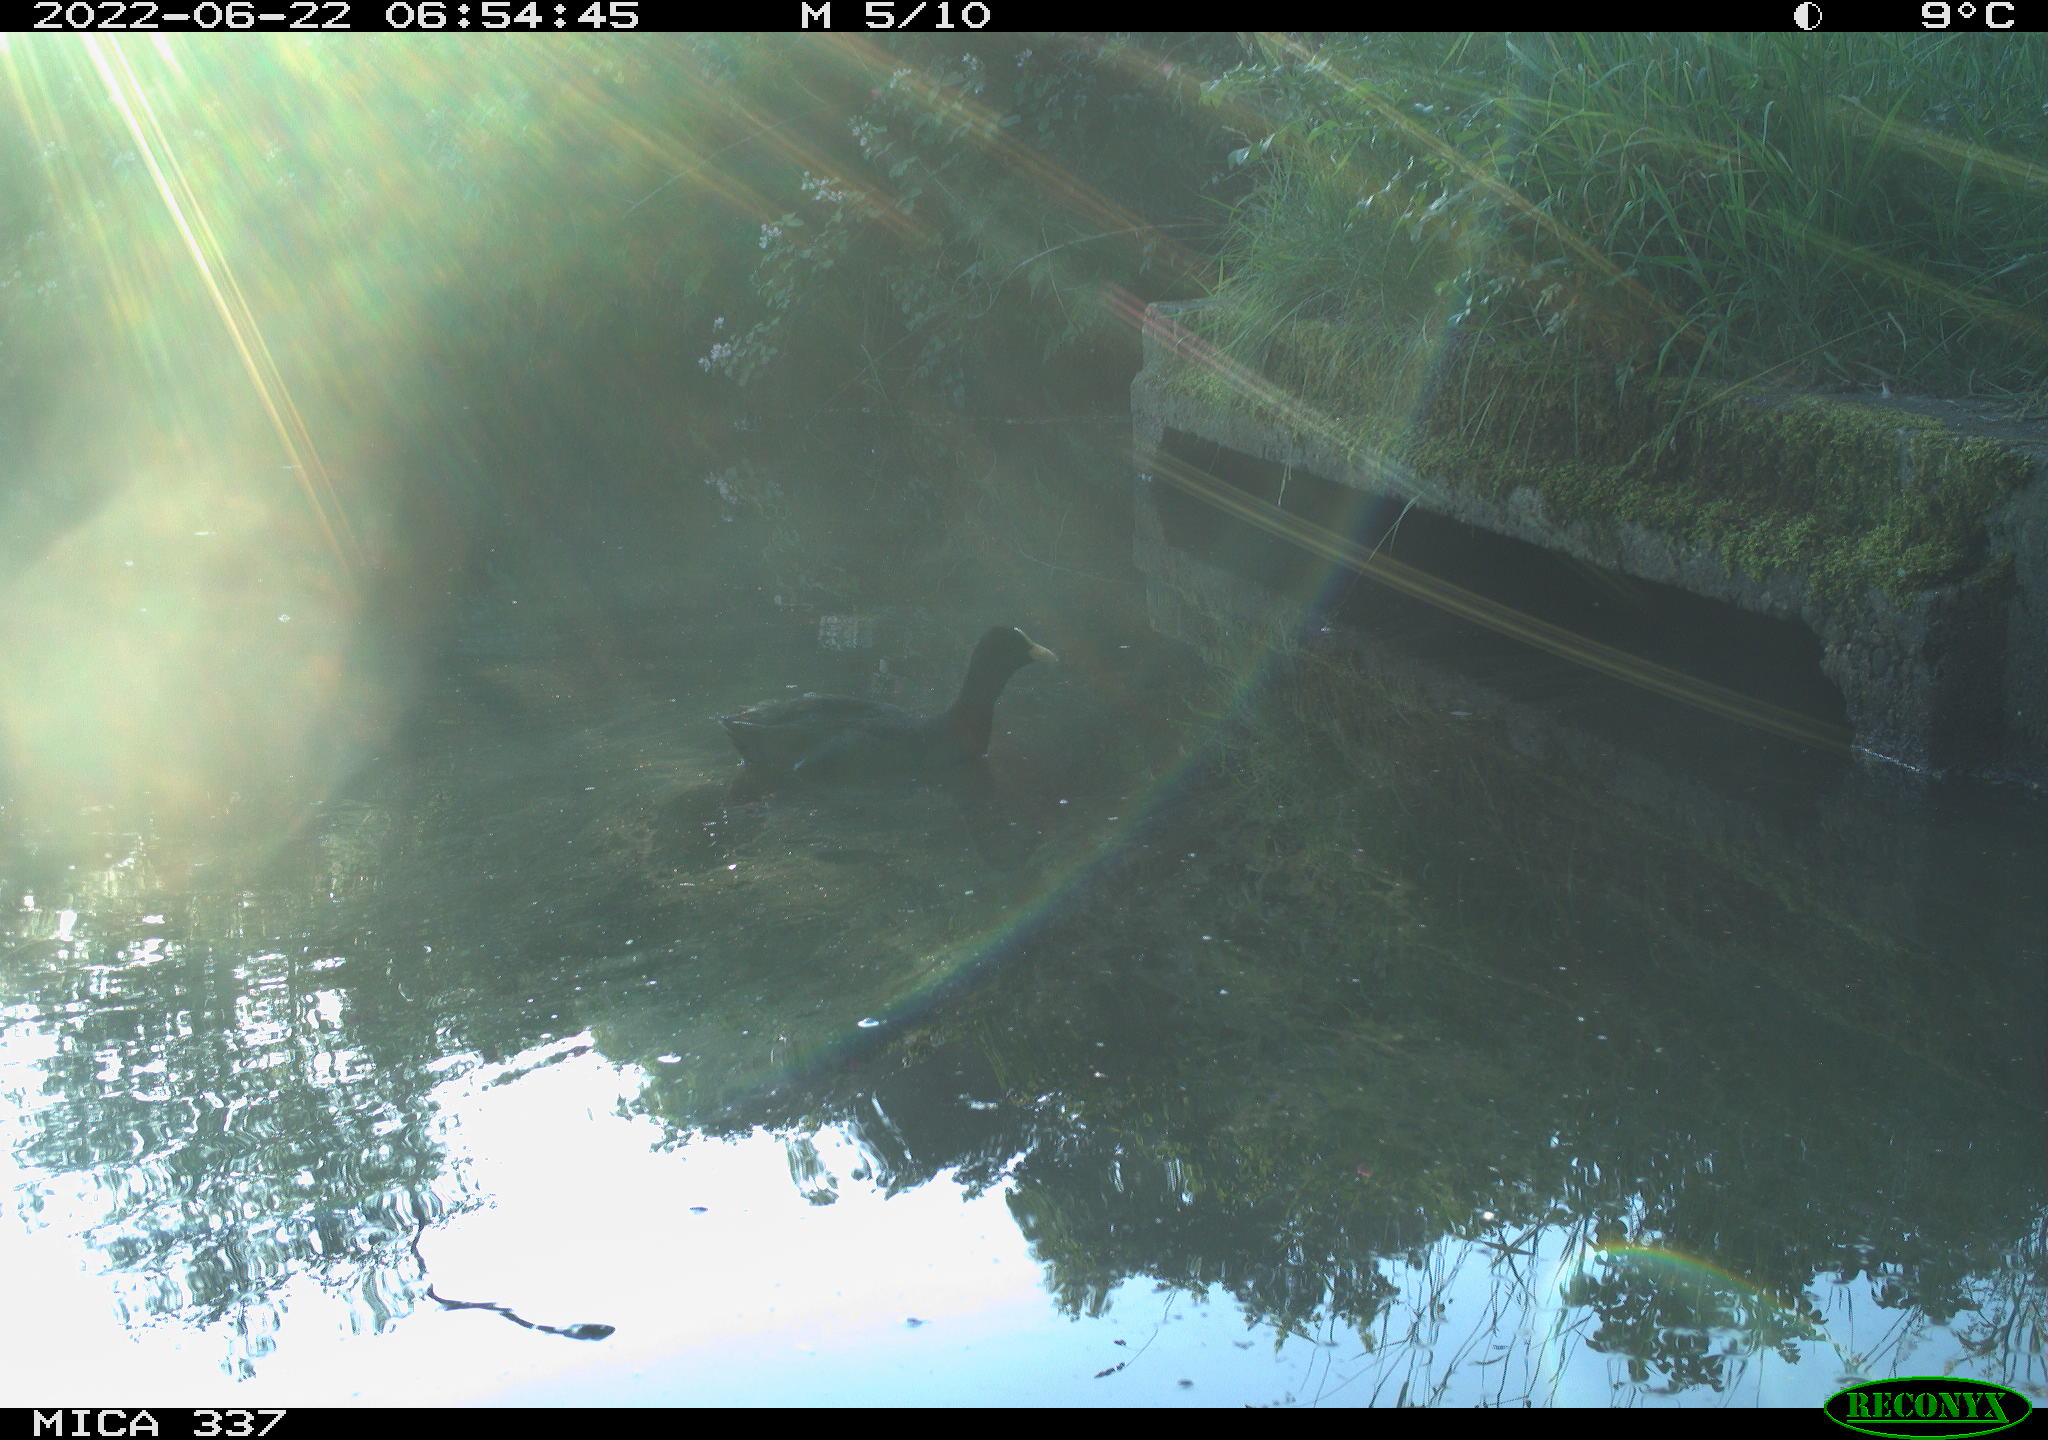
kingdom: Animalia
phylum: Chordata
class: Aves
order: Gruiformes
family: Rallidae
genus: Fulica
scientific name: Fulica atra
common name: Eurasian coot
